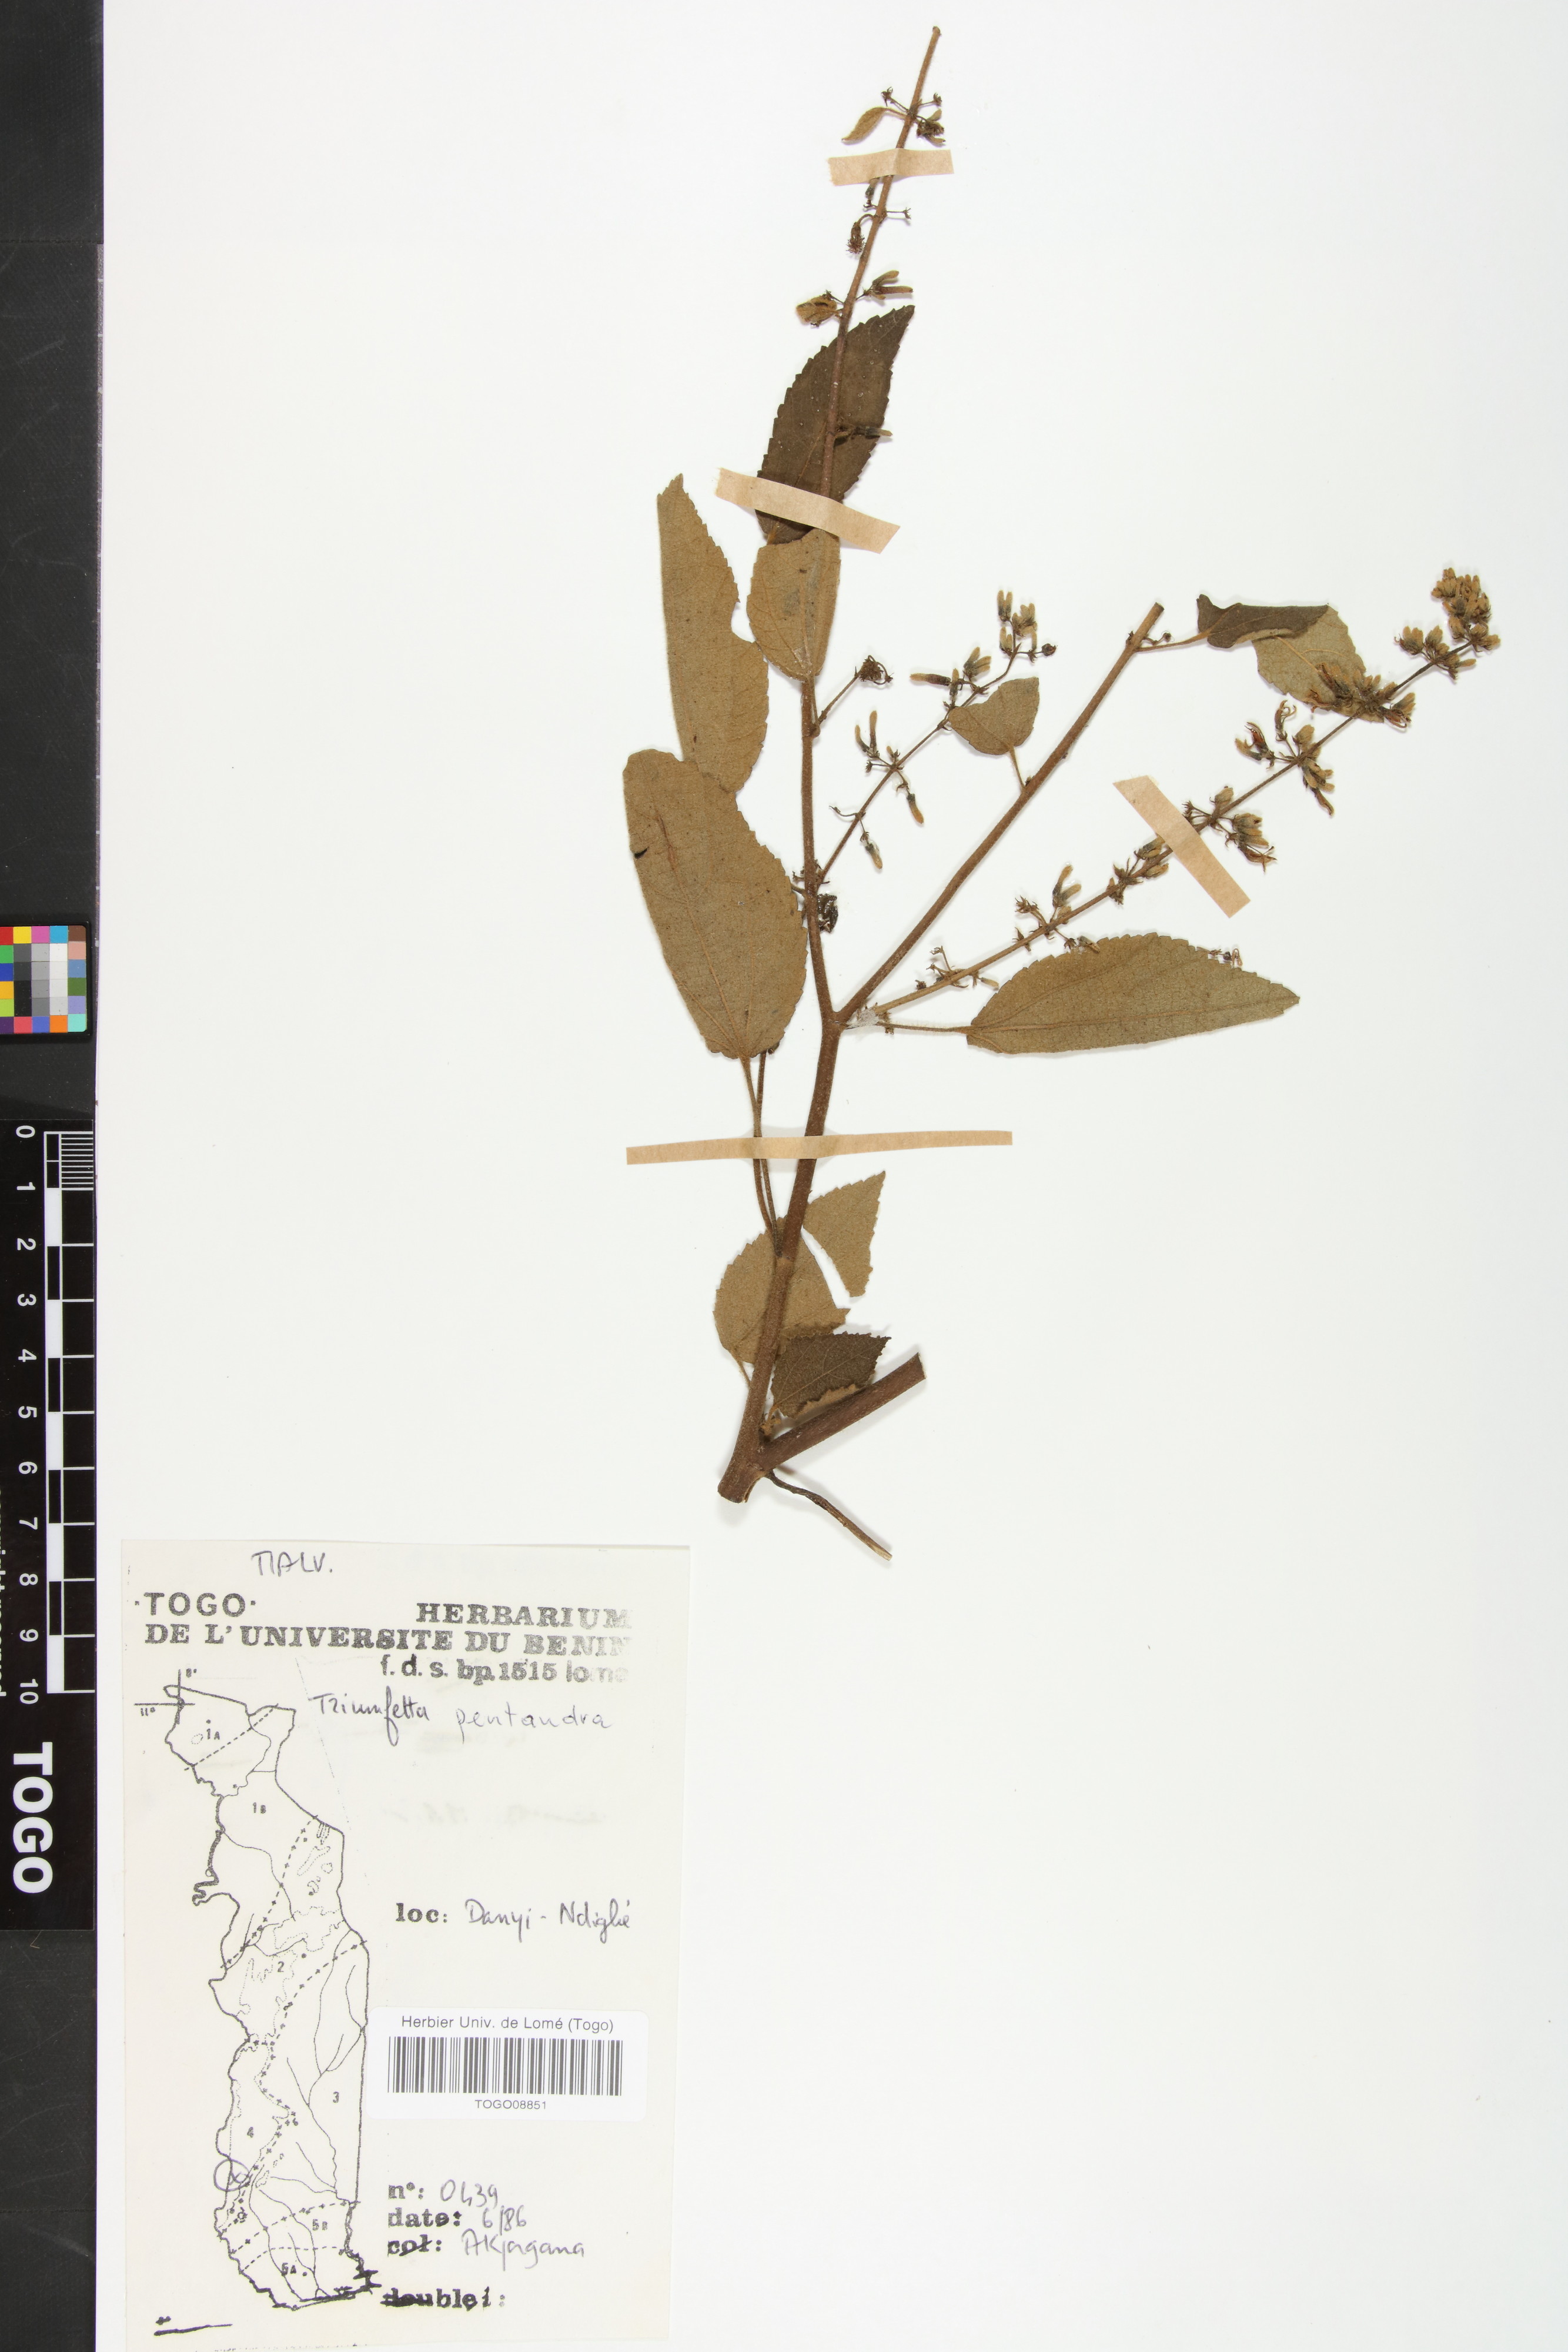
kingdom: Plantae
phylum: Tracheophyta
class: Magnoliopsida
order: Malvales
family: Malvaceae
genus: Triumfetta
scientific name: Triumfetta pentandra
